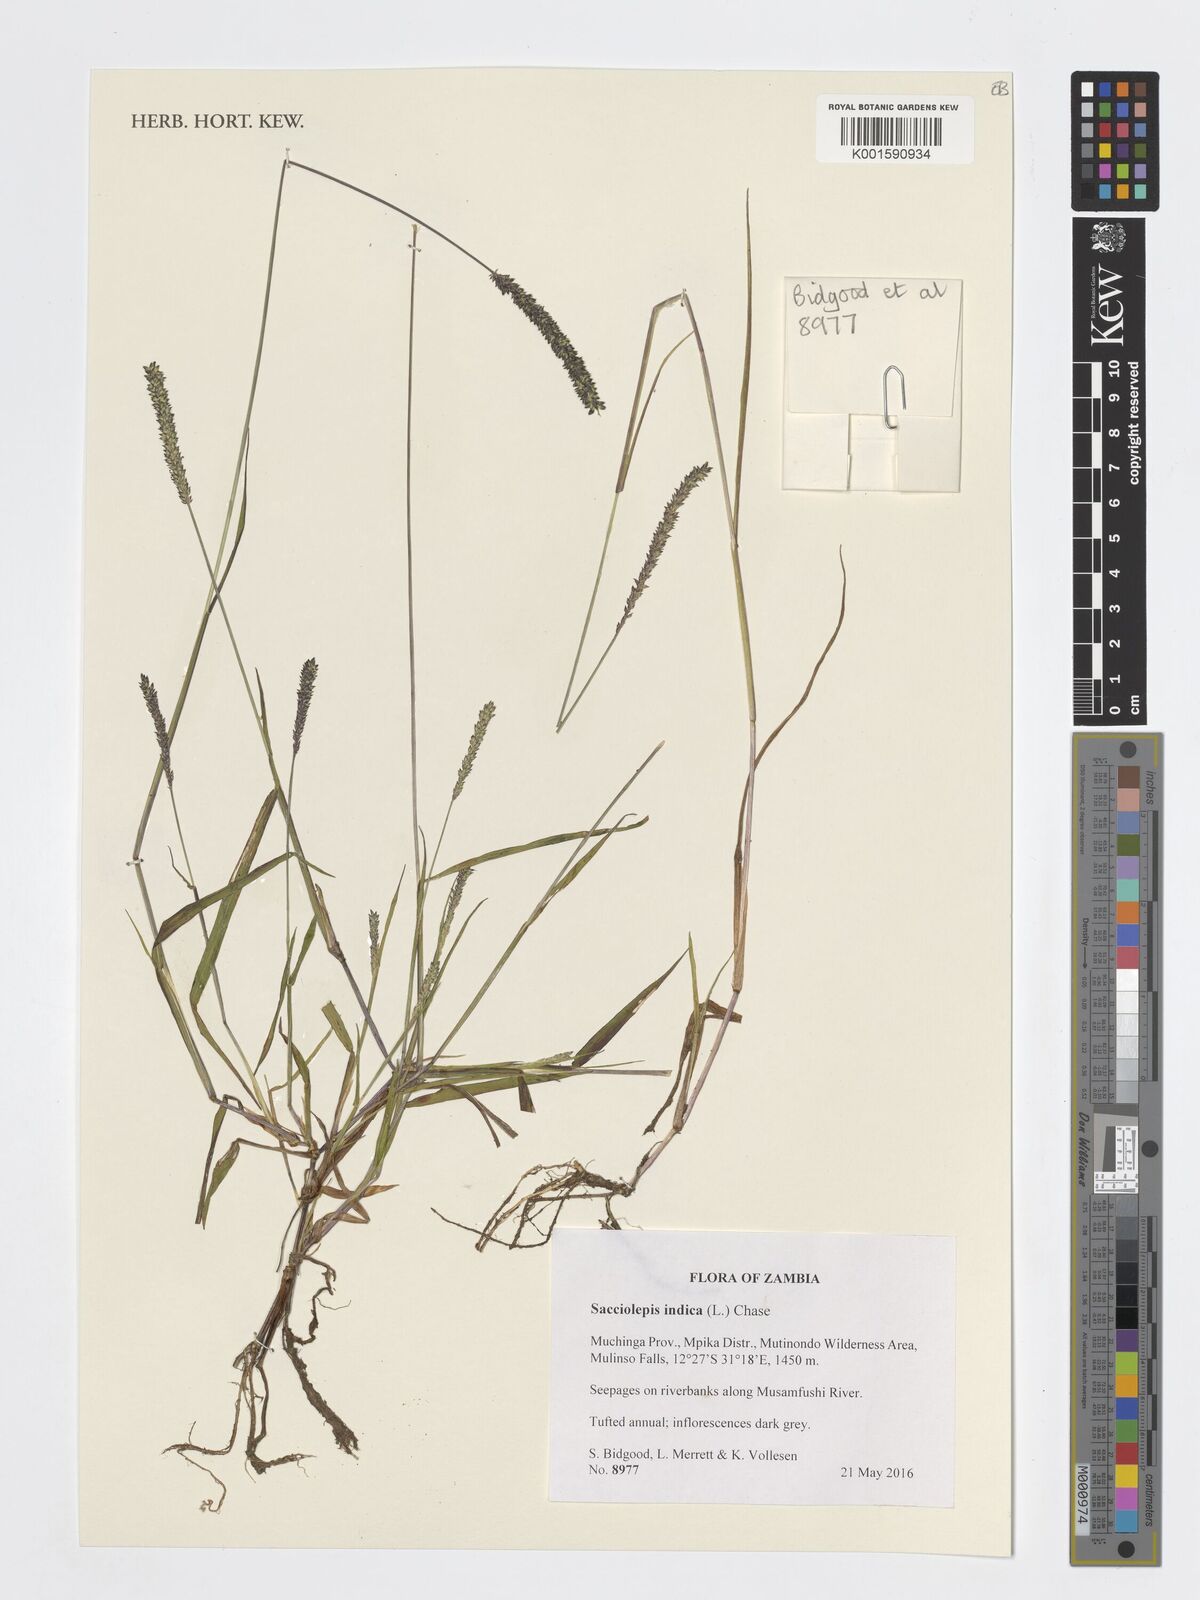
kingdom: Plantae
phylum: Tracheophyta
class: Liliopsida
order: Poales
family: Poaceae
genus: Sacciolepis
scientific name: Sacciolepis indica
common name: Glenwoodgrass
